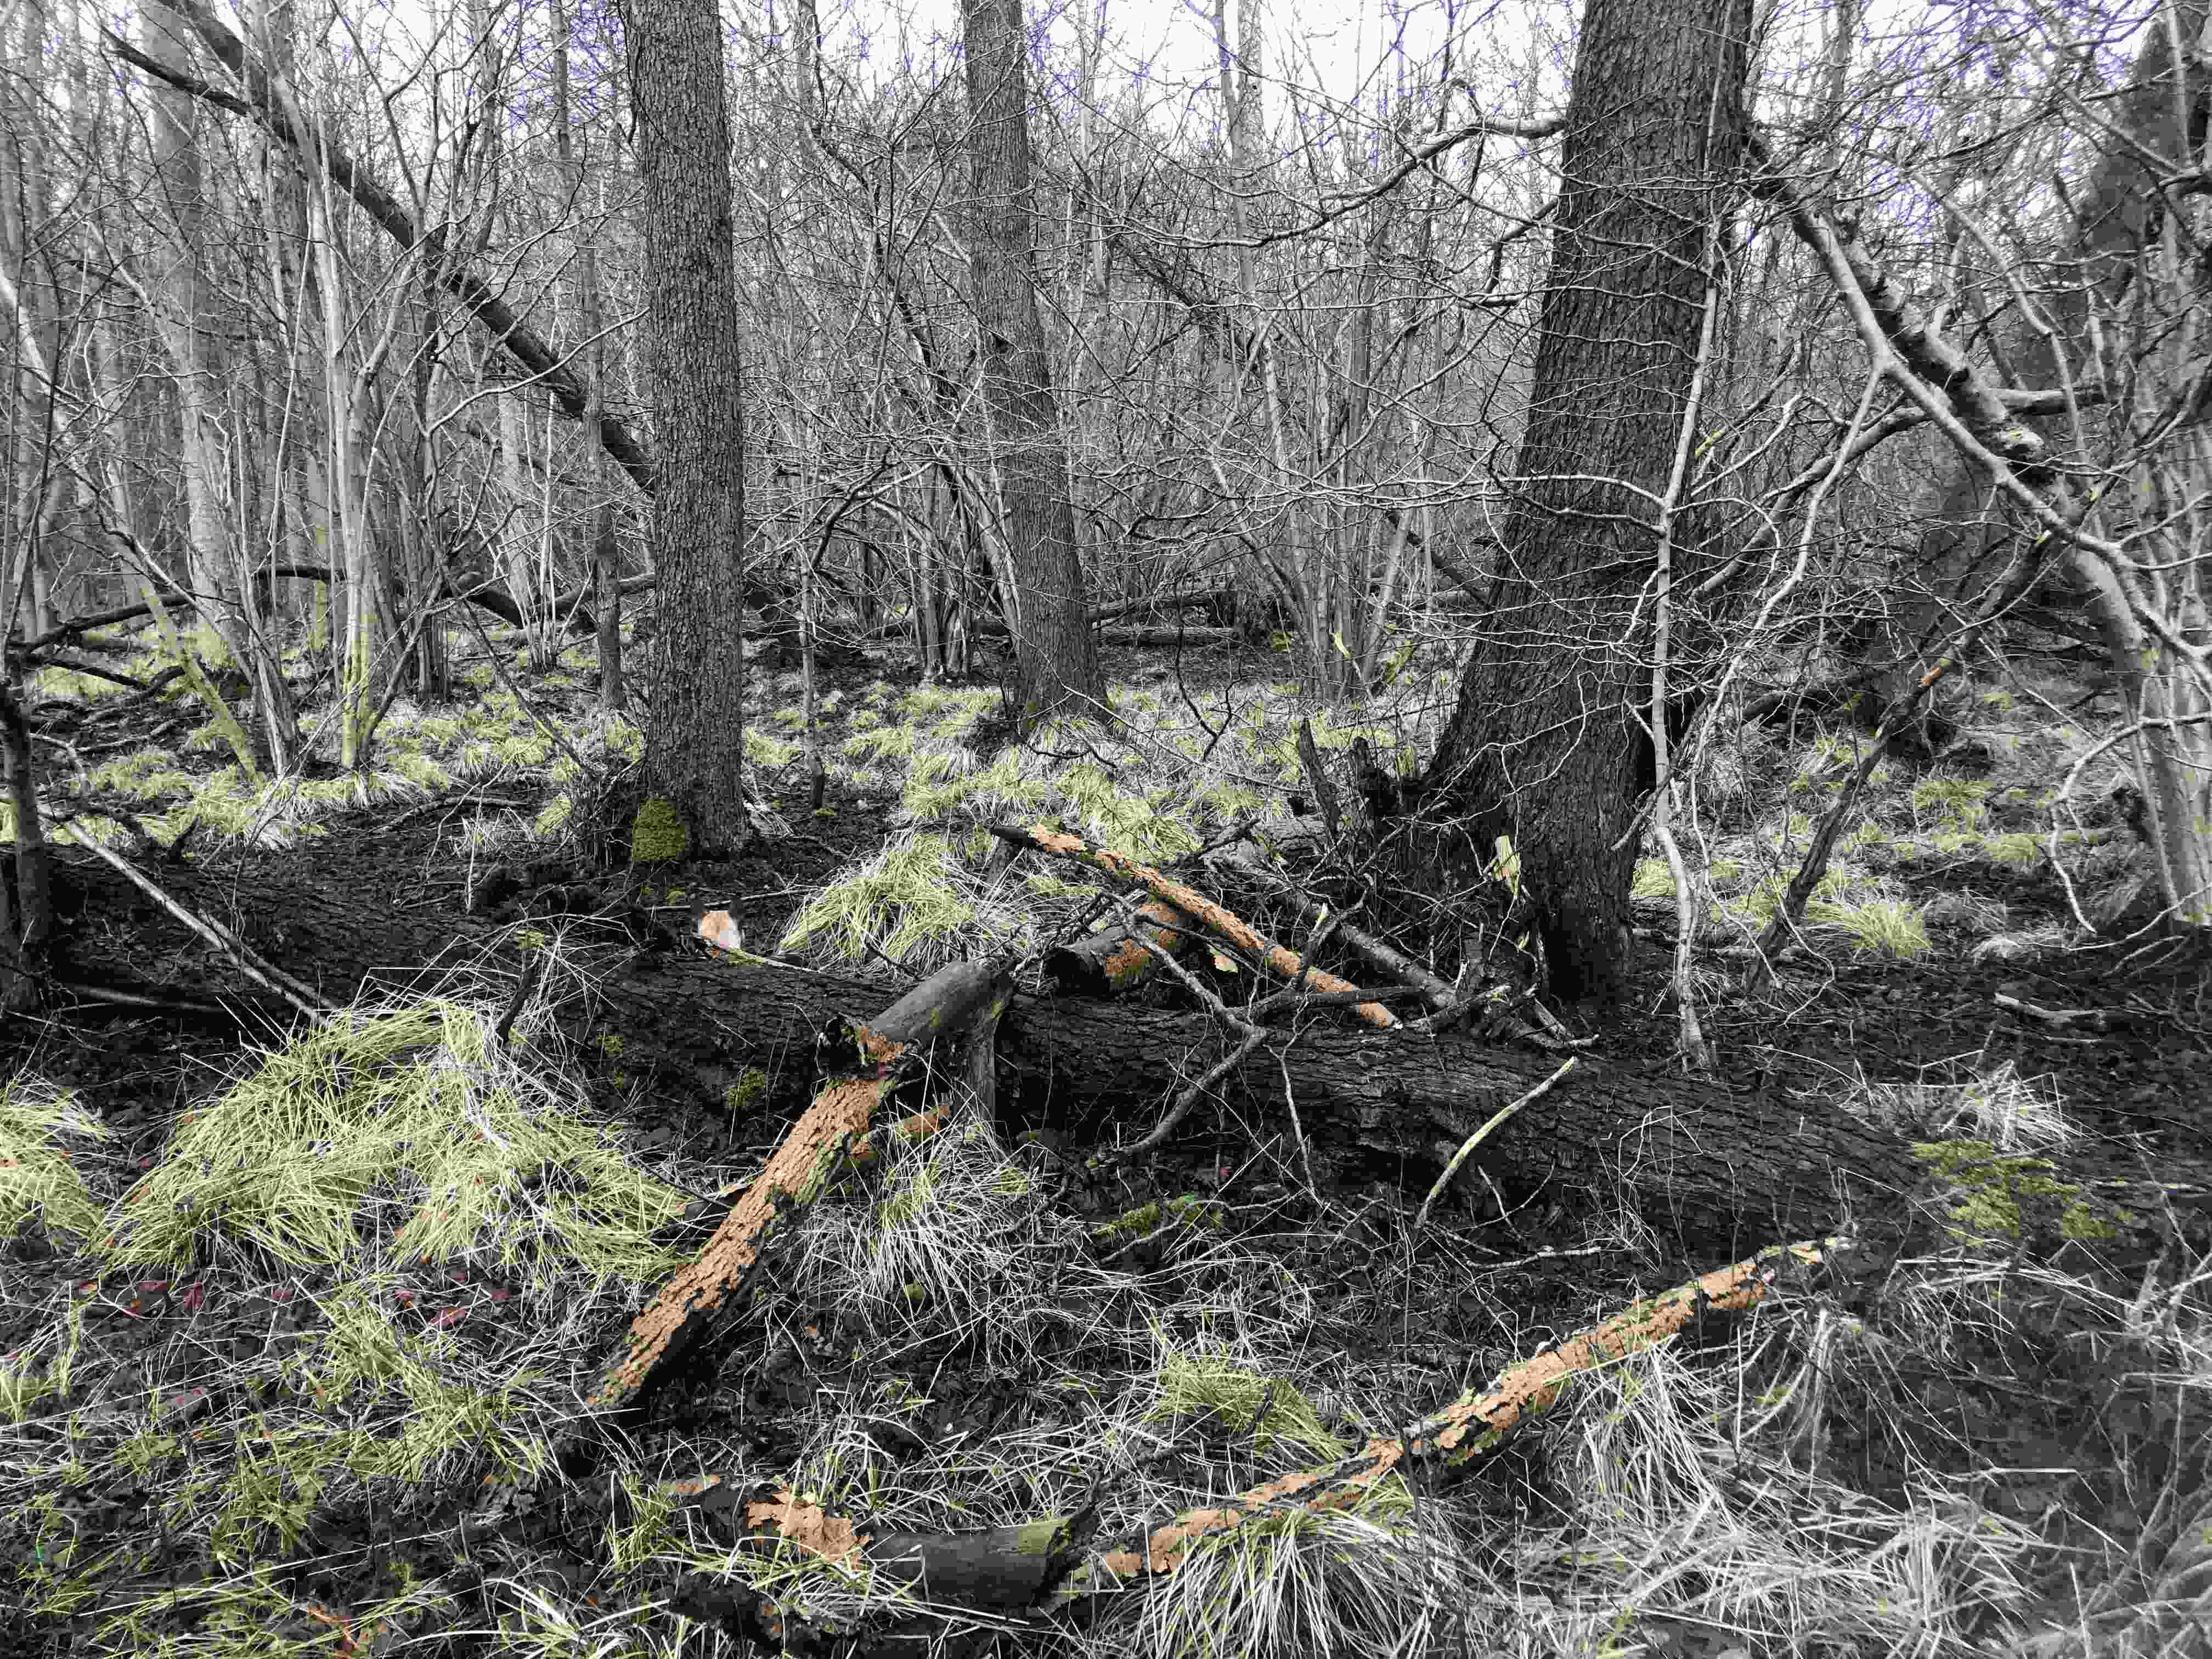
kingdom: Fungi
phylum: Basidiomycota
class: Agaricomycetes
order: Polyporales
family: Incrustoporiaceae
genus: Skeletocutis
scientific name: Skeletocutis nemoralis
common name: stor krystalporesvamp
